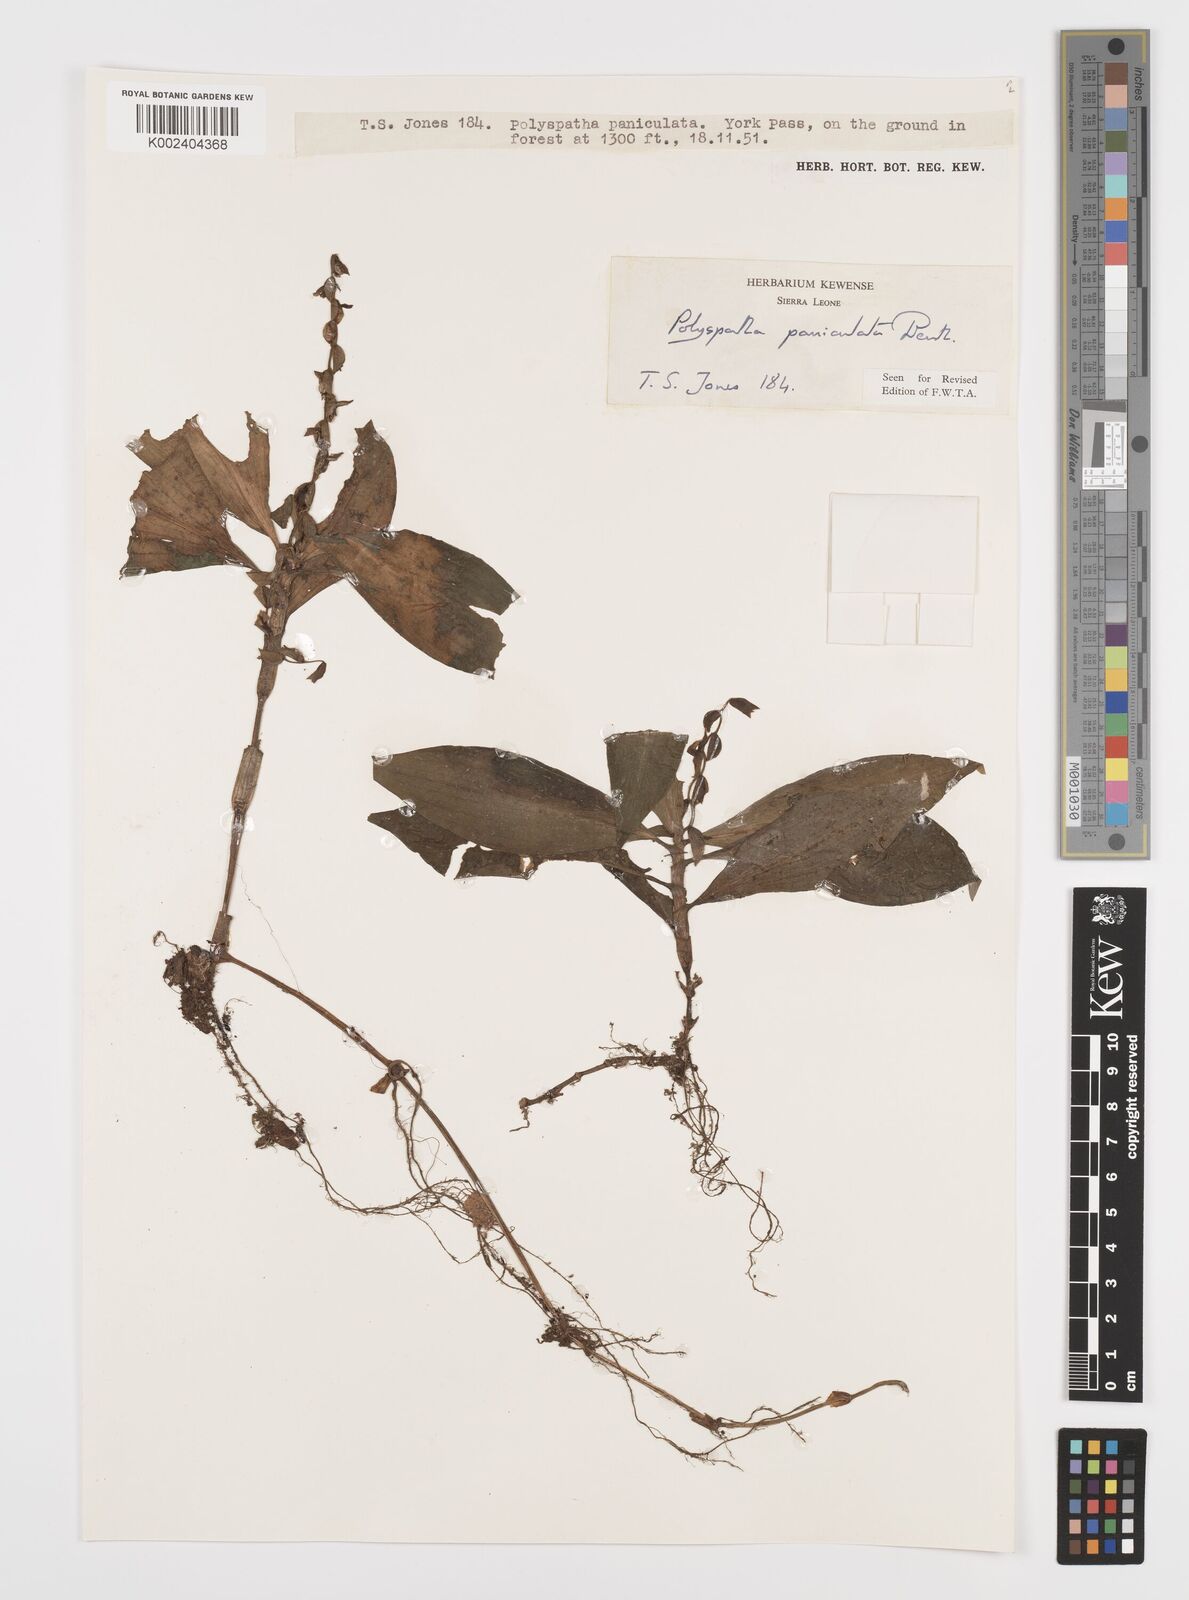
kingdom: Plantae
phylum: Tracheophyta
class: Liliopsida
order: Commelinales
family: Commelinaceae
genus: Polyspatha
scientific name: Polyspatha paniculata
